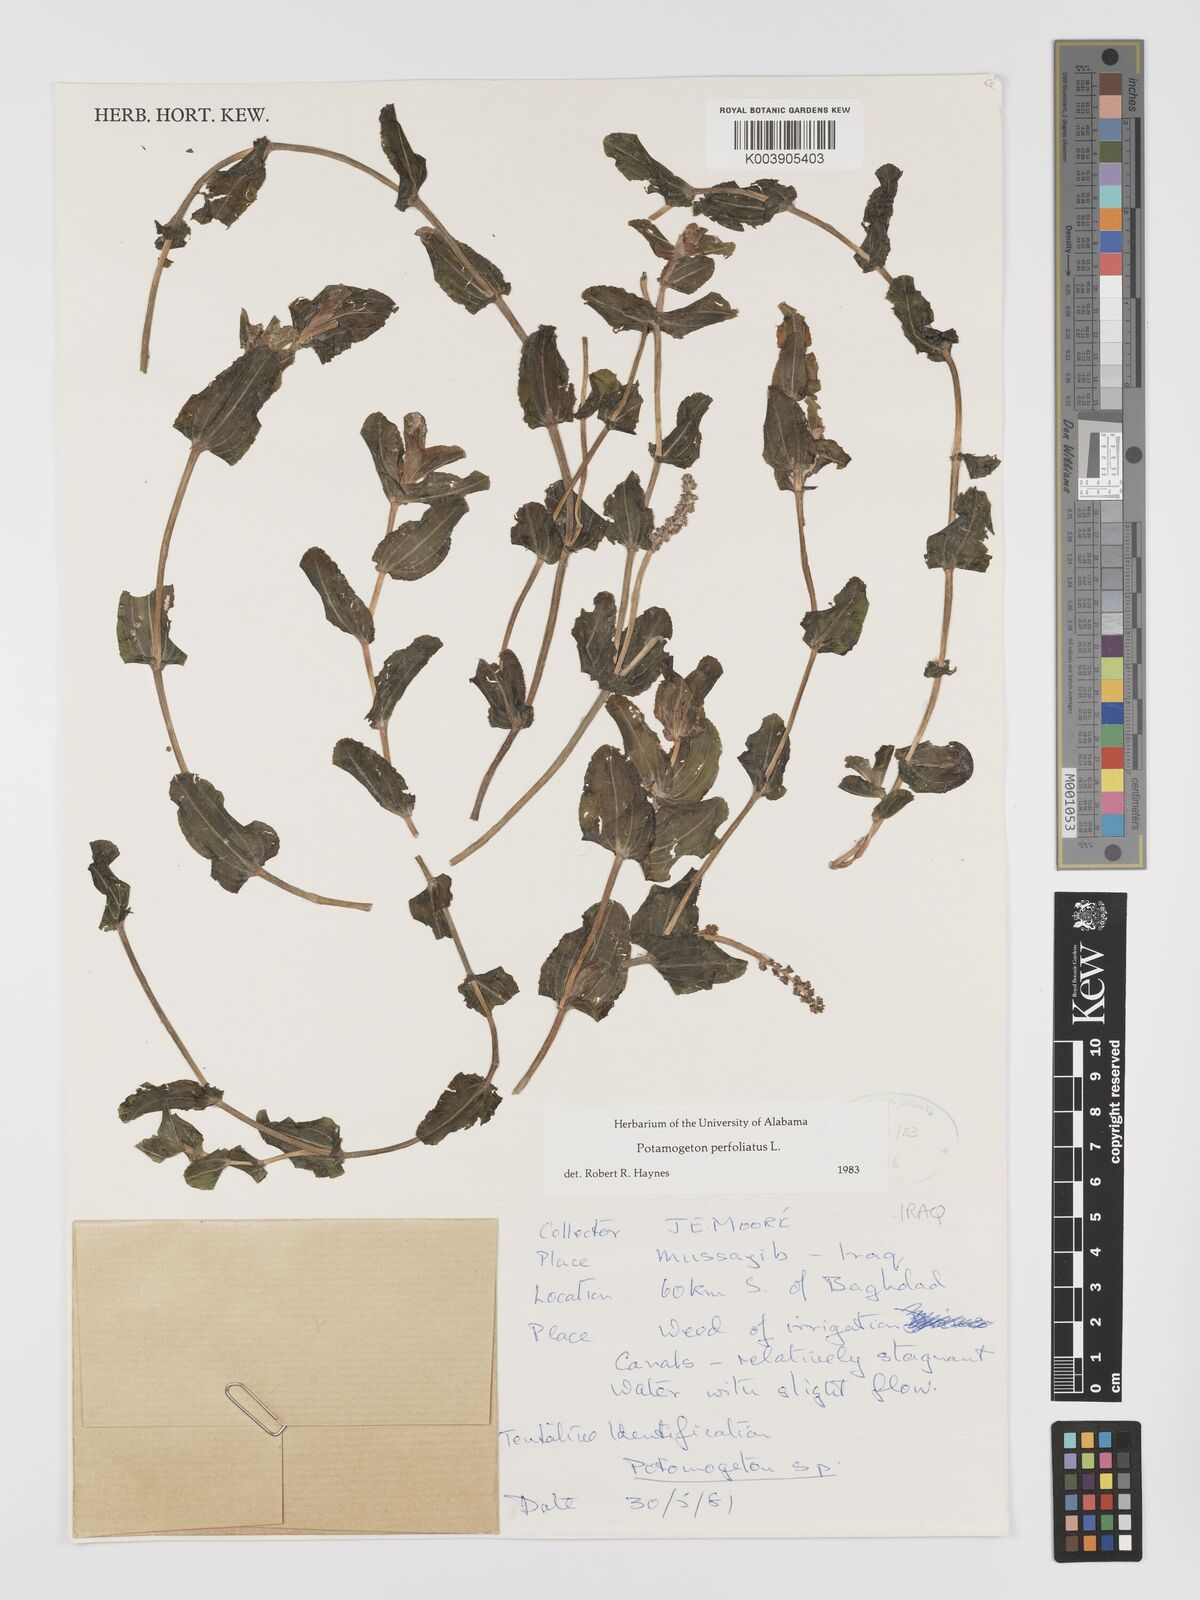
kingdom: Plantae
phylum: Tracheophyta
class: Liliopsida
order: Alismatales
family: Potamogetonaceae
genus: Potamogeton
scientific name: Potamogeton perfoliatus
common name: Perfoliate pondweed
